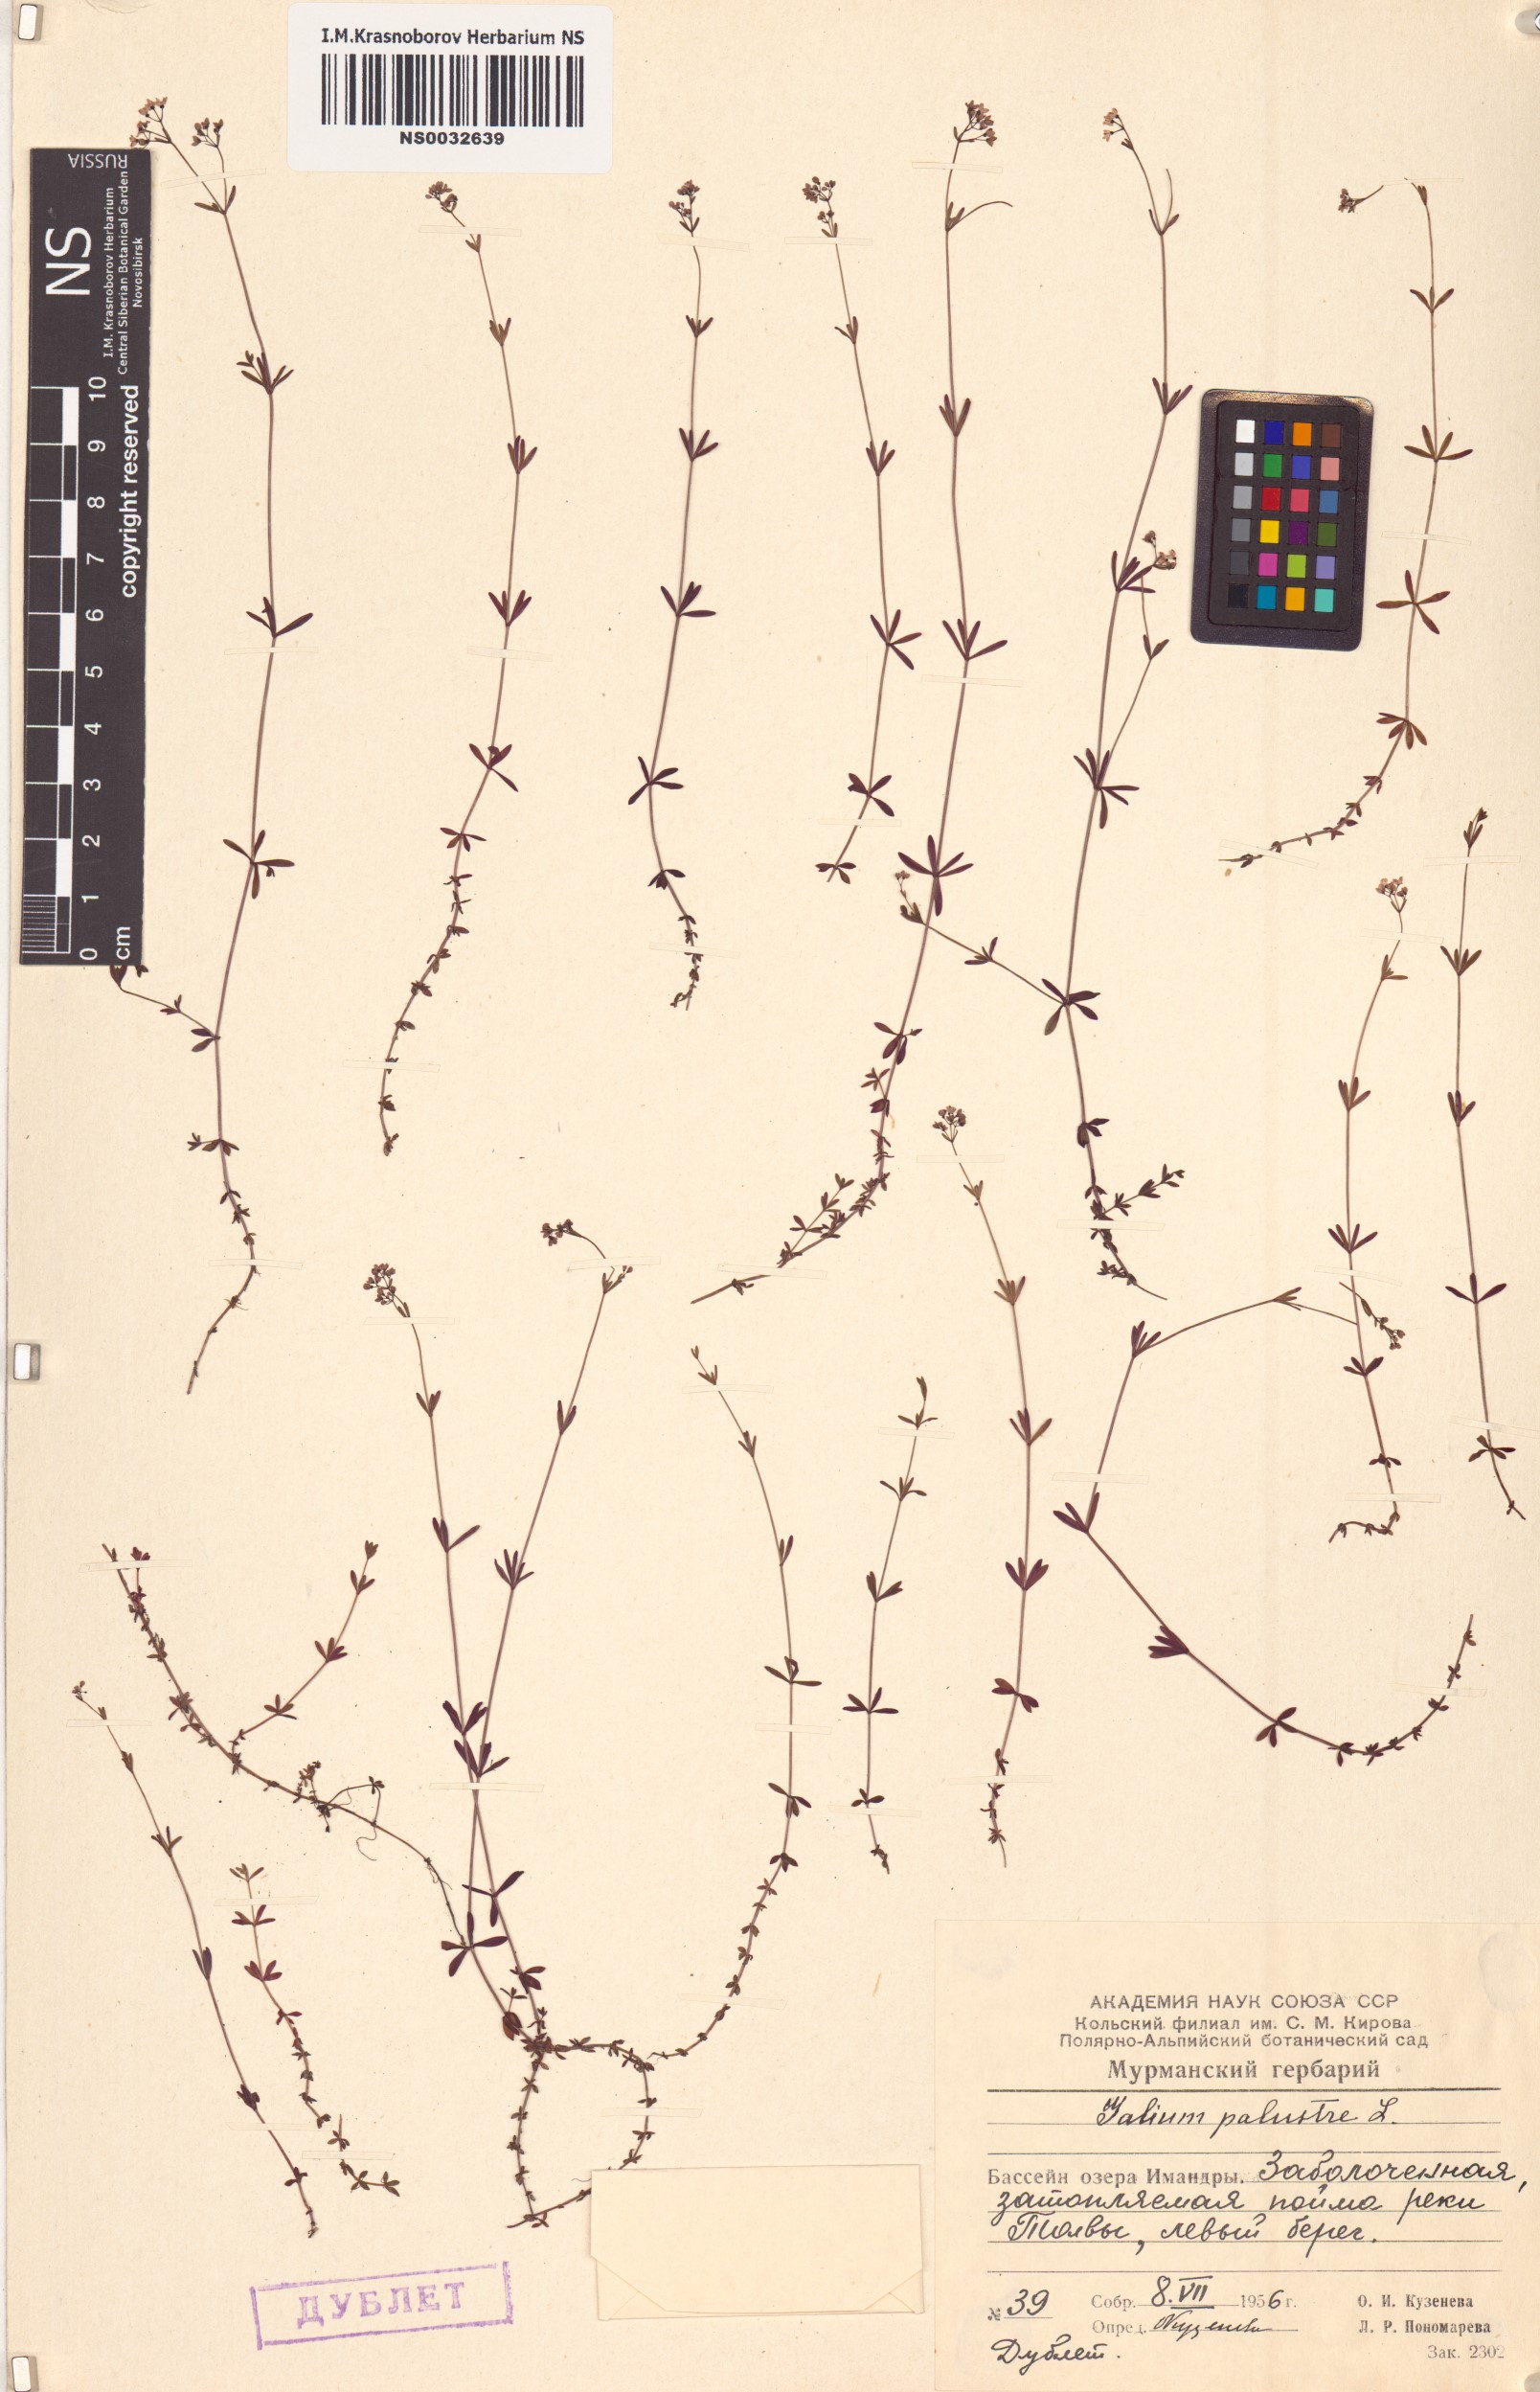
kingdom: Plantae
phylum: Tracheophyta
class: Magnoliopsida
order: Gentianales
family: Rubiaceae
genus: Galium
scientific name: Galium palustre
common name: Common marsh-bedstraw
